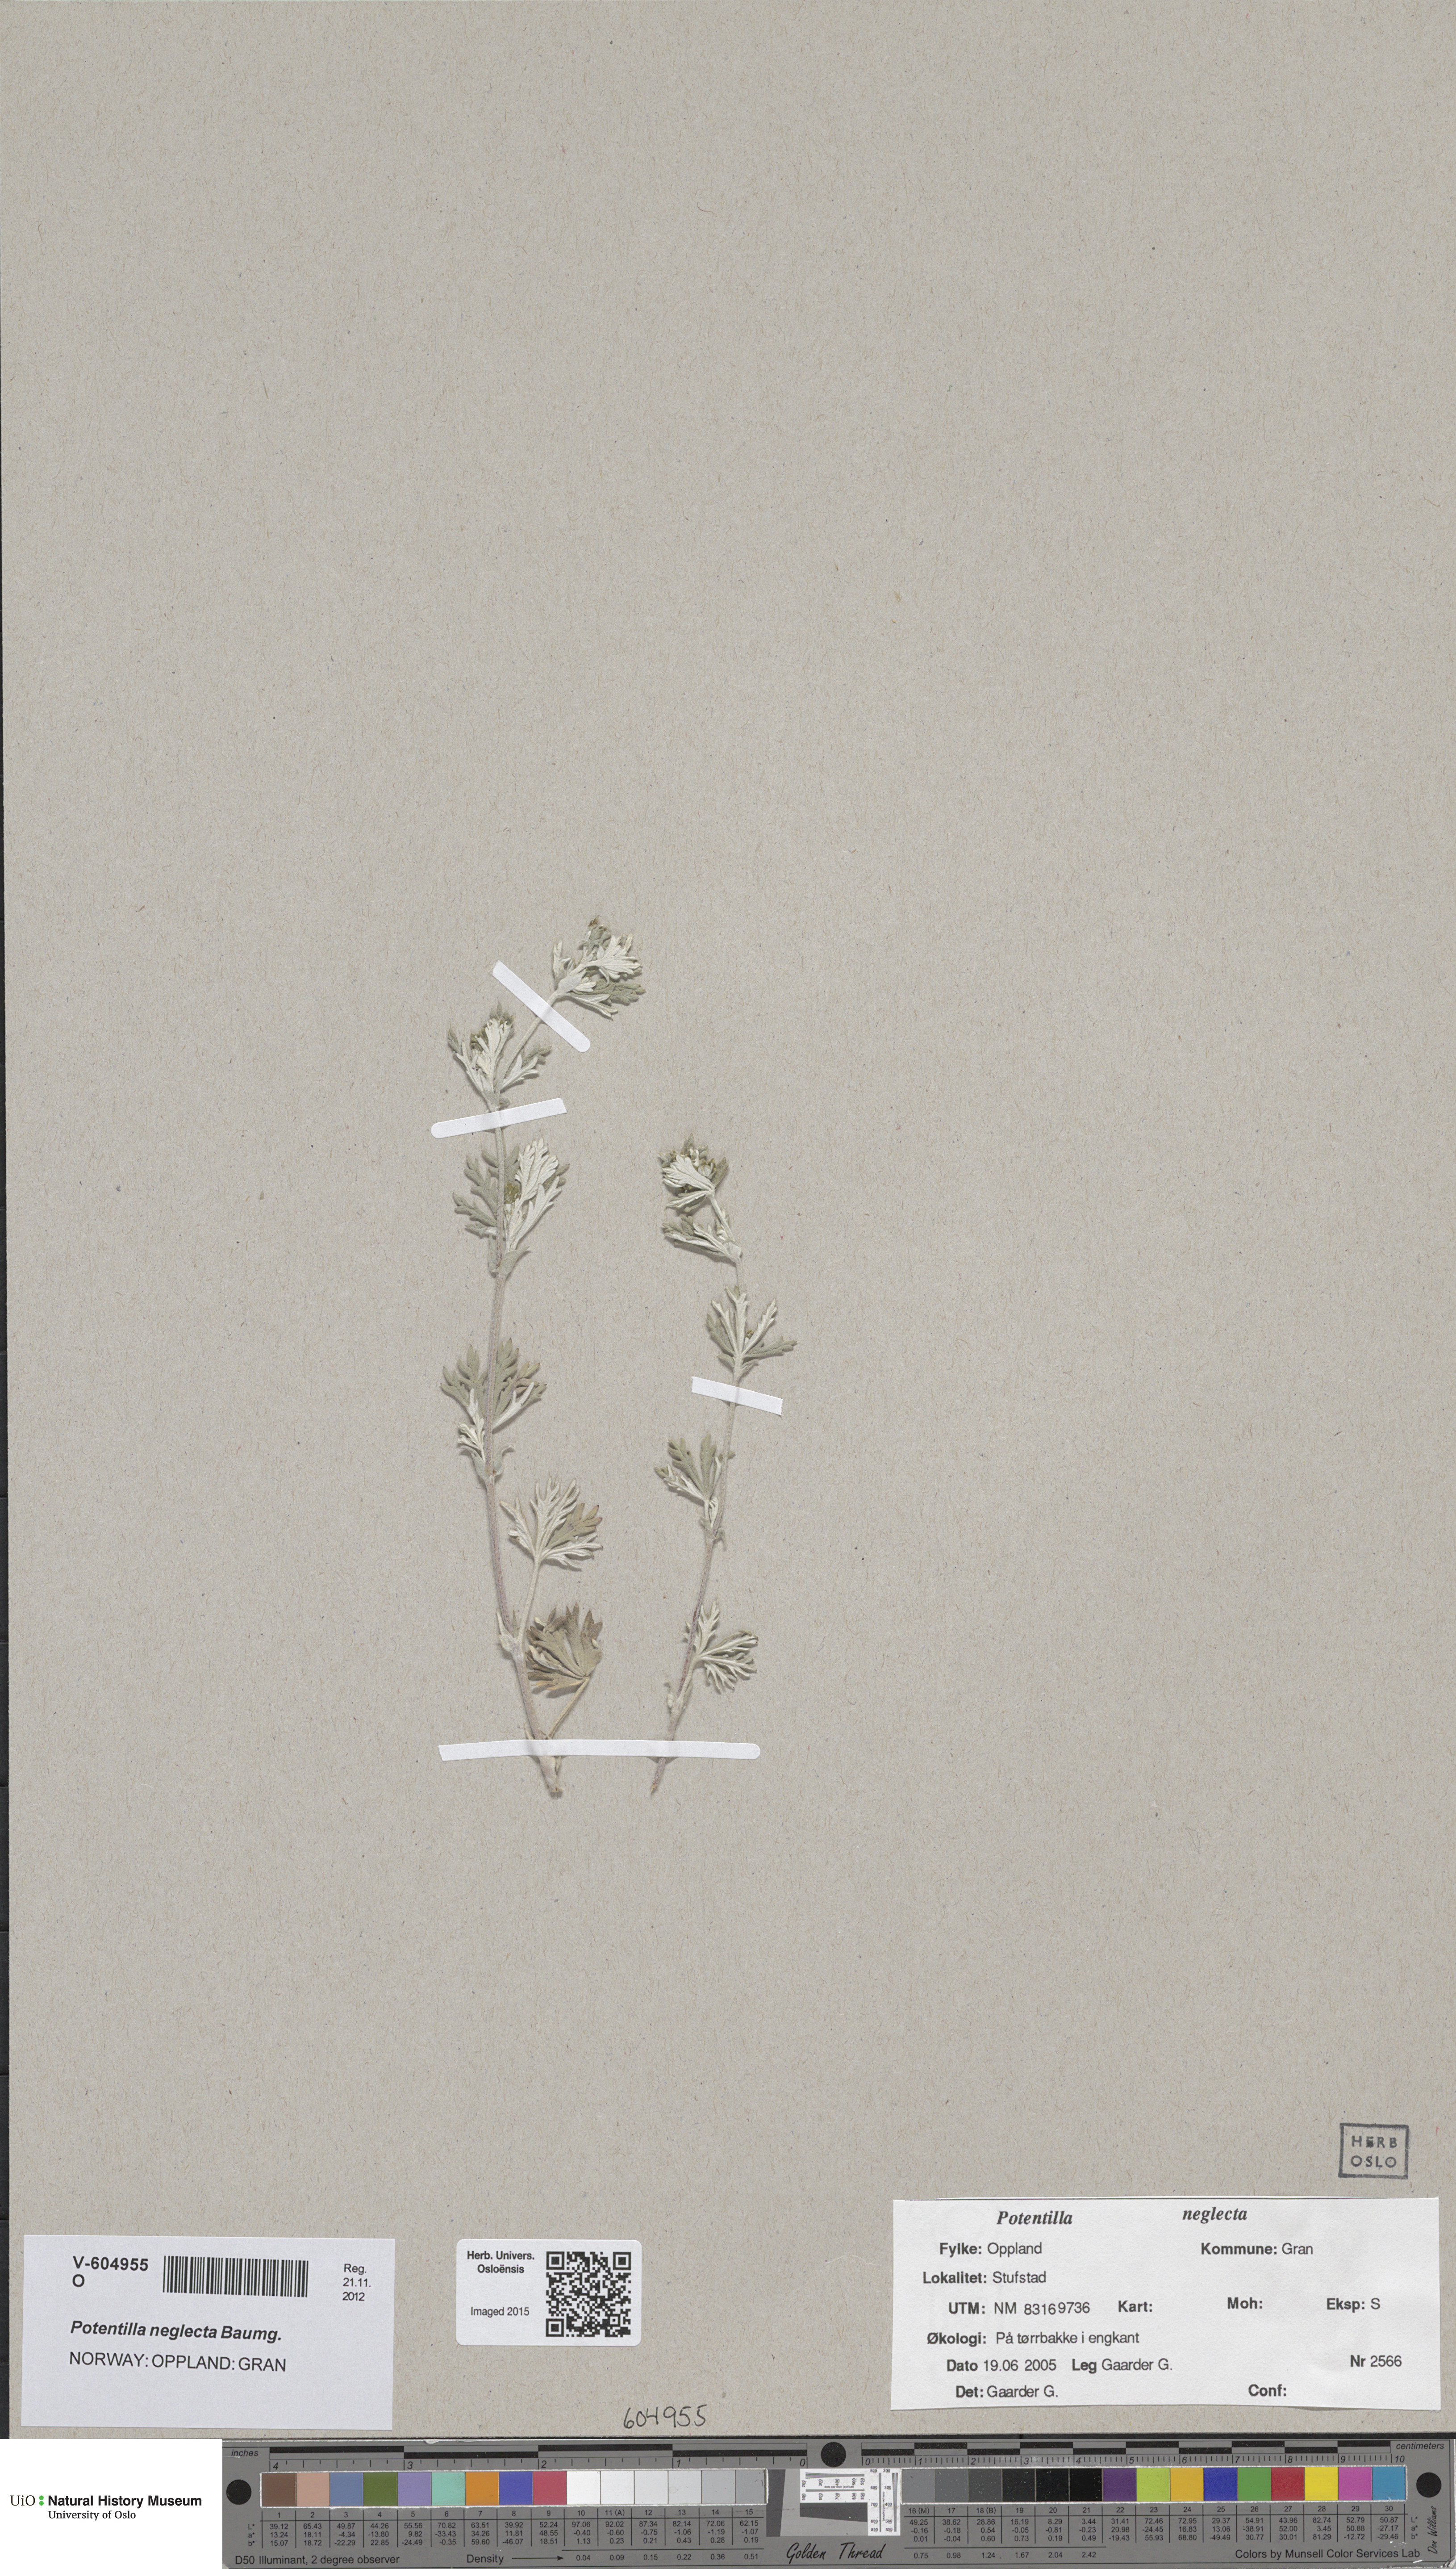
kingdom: Plantae
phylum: Tracheophyta
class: Magnoliopsida
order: Rosales
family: Rosaceae
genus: Potentilla
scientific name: Potentilla neglecta
